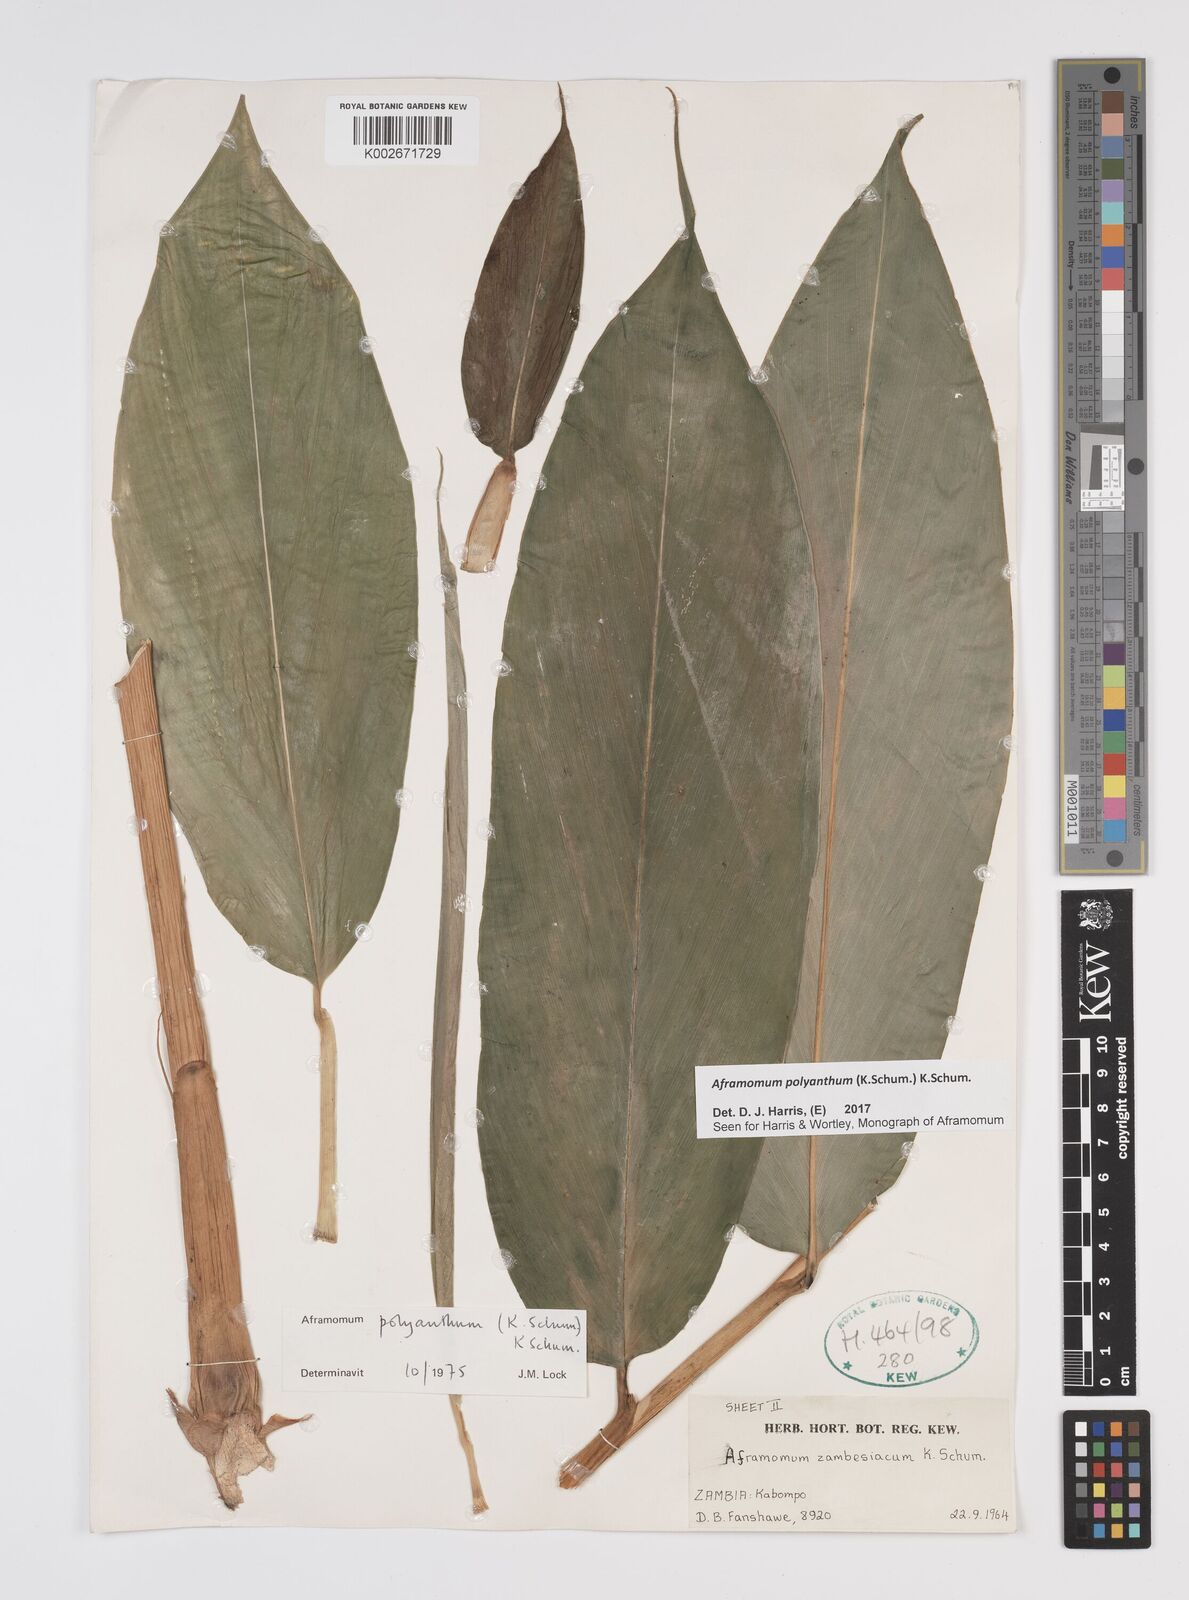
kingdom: Plantae
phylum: Tracheophyta
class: Liliopsida
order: Zingiberales
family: Zingiberaceae
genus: Aframomum
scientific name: Aframomum polyanthum
